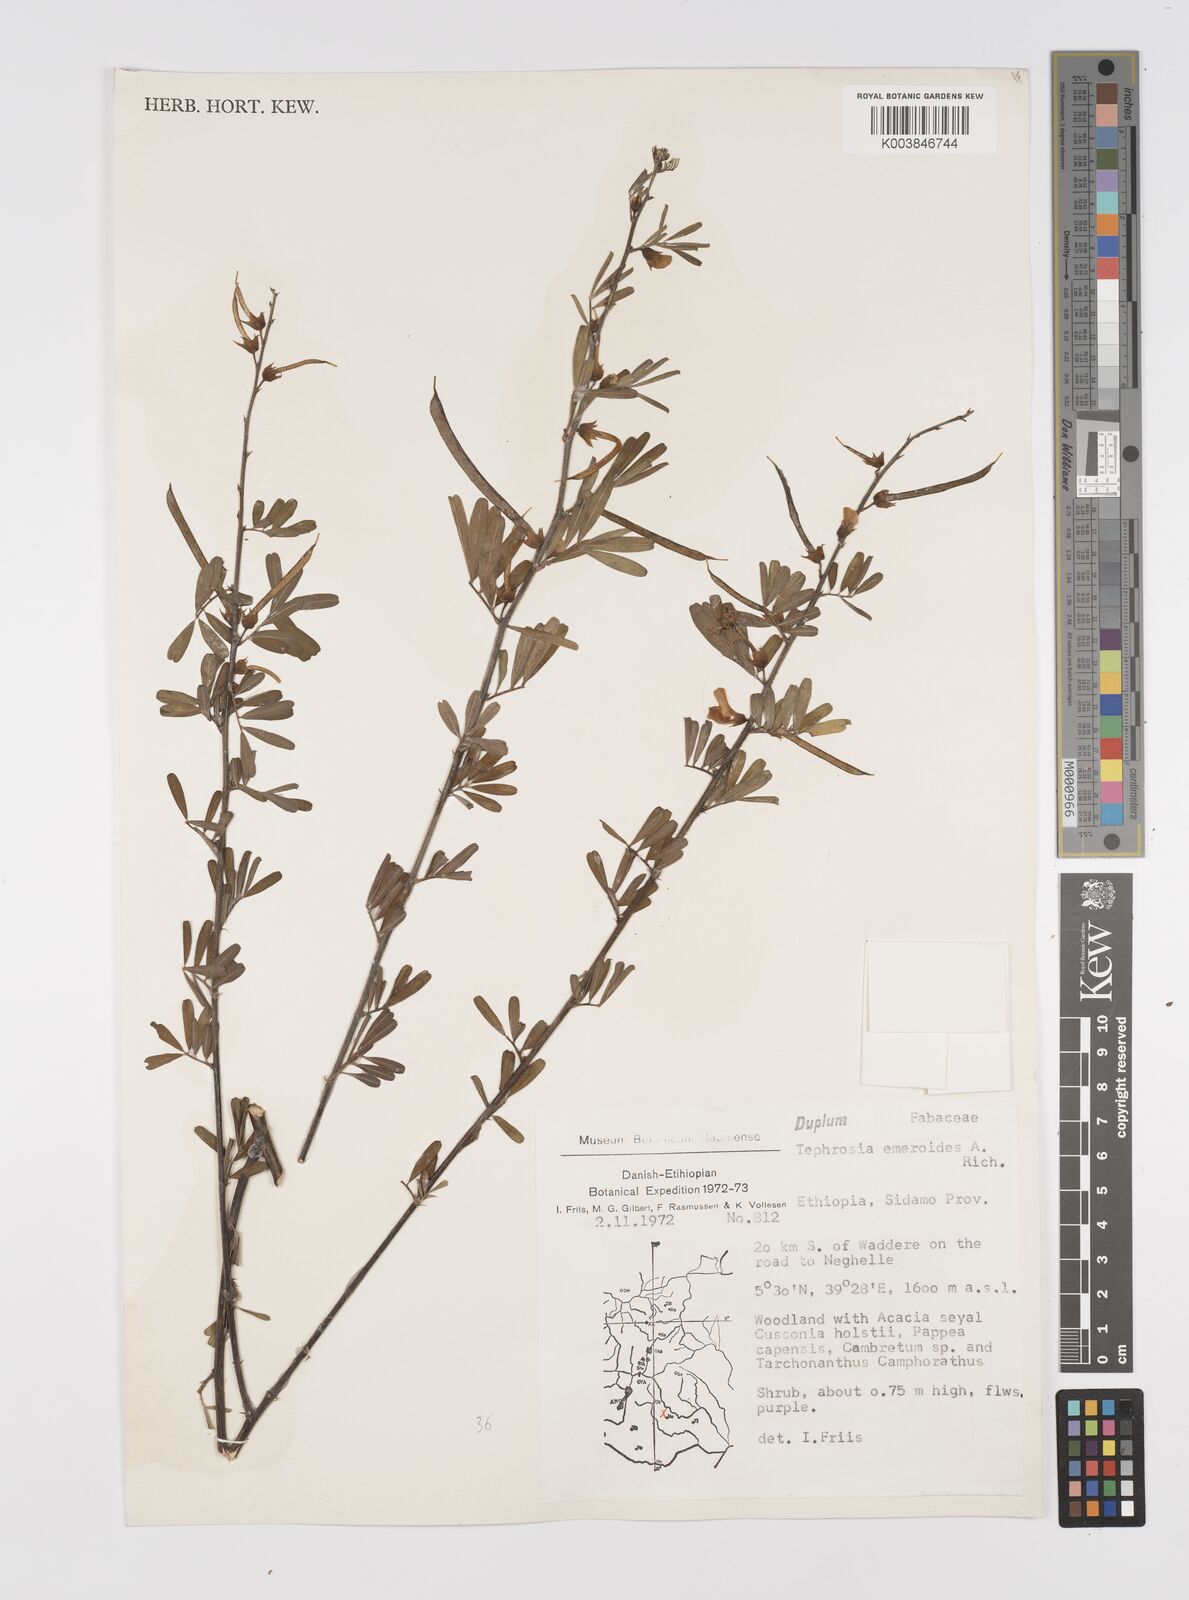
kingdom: Plantae
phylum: Tracheophyta
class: Magnoliopsida
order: Fabales
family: Fabaceae
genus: Tephrosia
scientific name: Tephrosia emeroides
